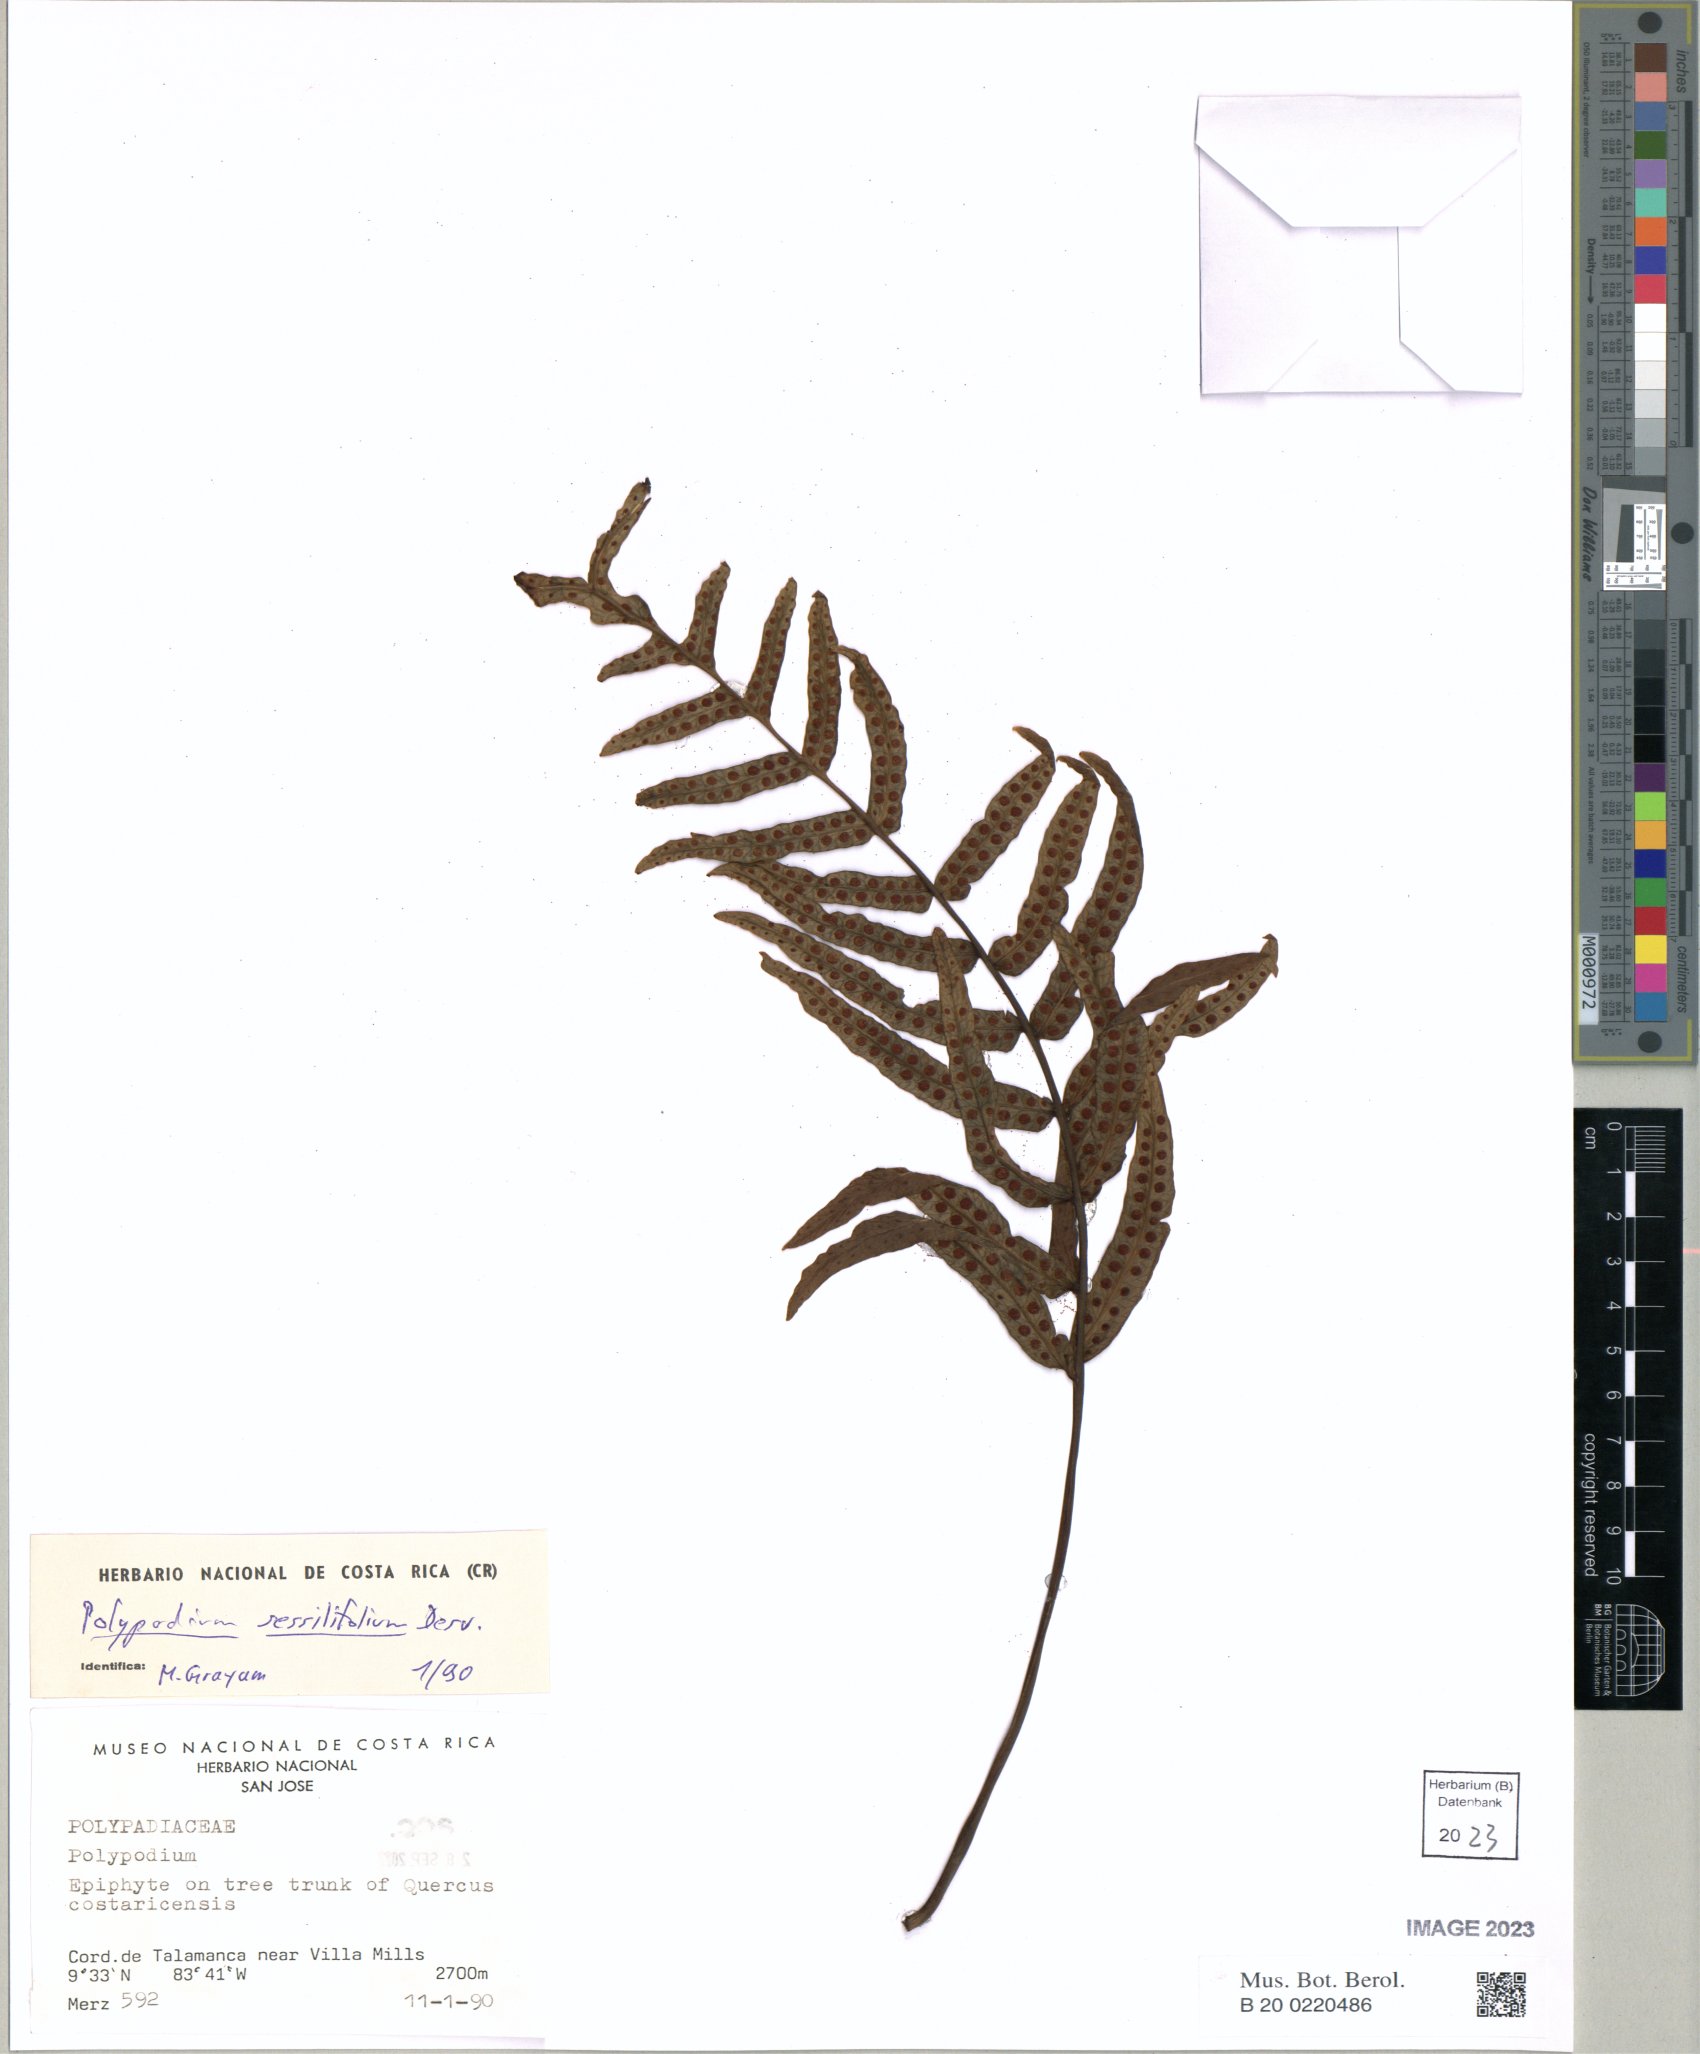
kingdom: Plantae
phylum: Tracheophyta
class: Polypodiopsida
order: Polypodiales
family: Polypodiaceae
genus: Serpocaulon
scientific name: Serpocaulon sessilifolium
